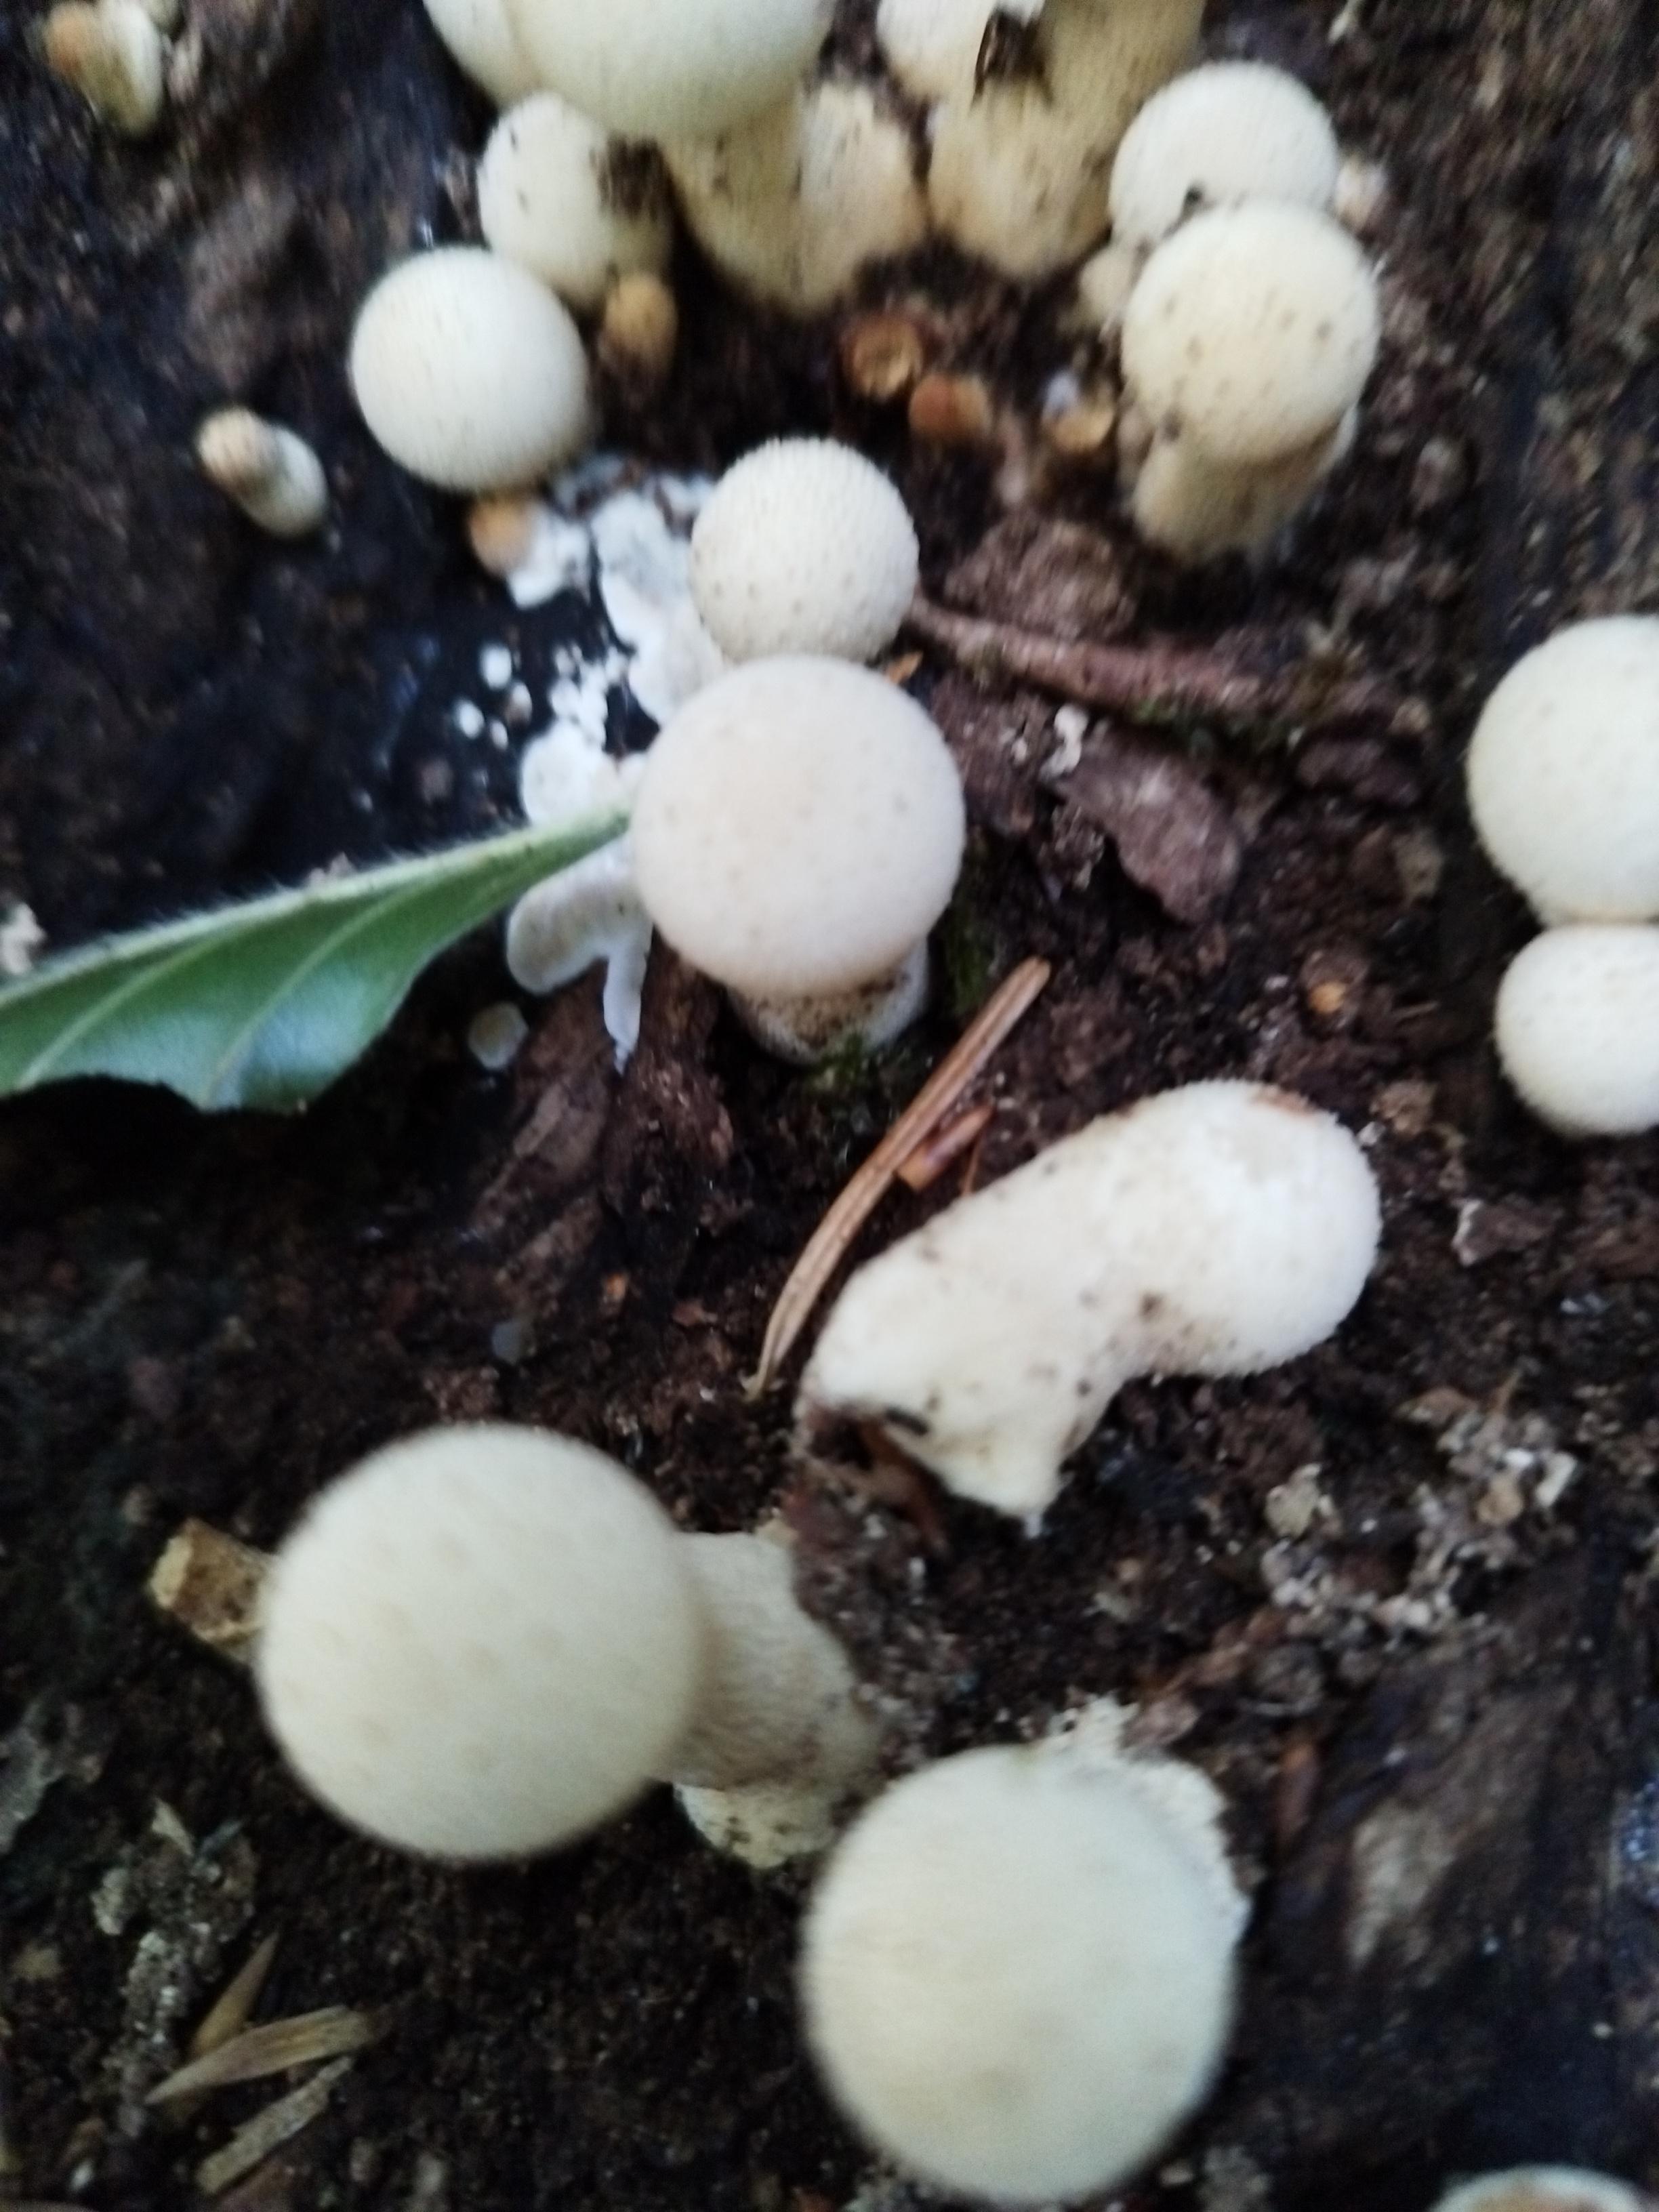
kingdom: Fungi
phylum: Basidiomycota
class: Agaricomycetes
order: Agaricales
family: Lycoperdaceae
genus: Apioperdon
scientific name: Apioperdon pyriforme
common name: pære-støvbold
